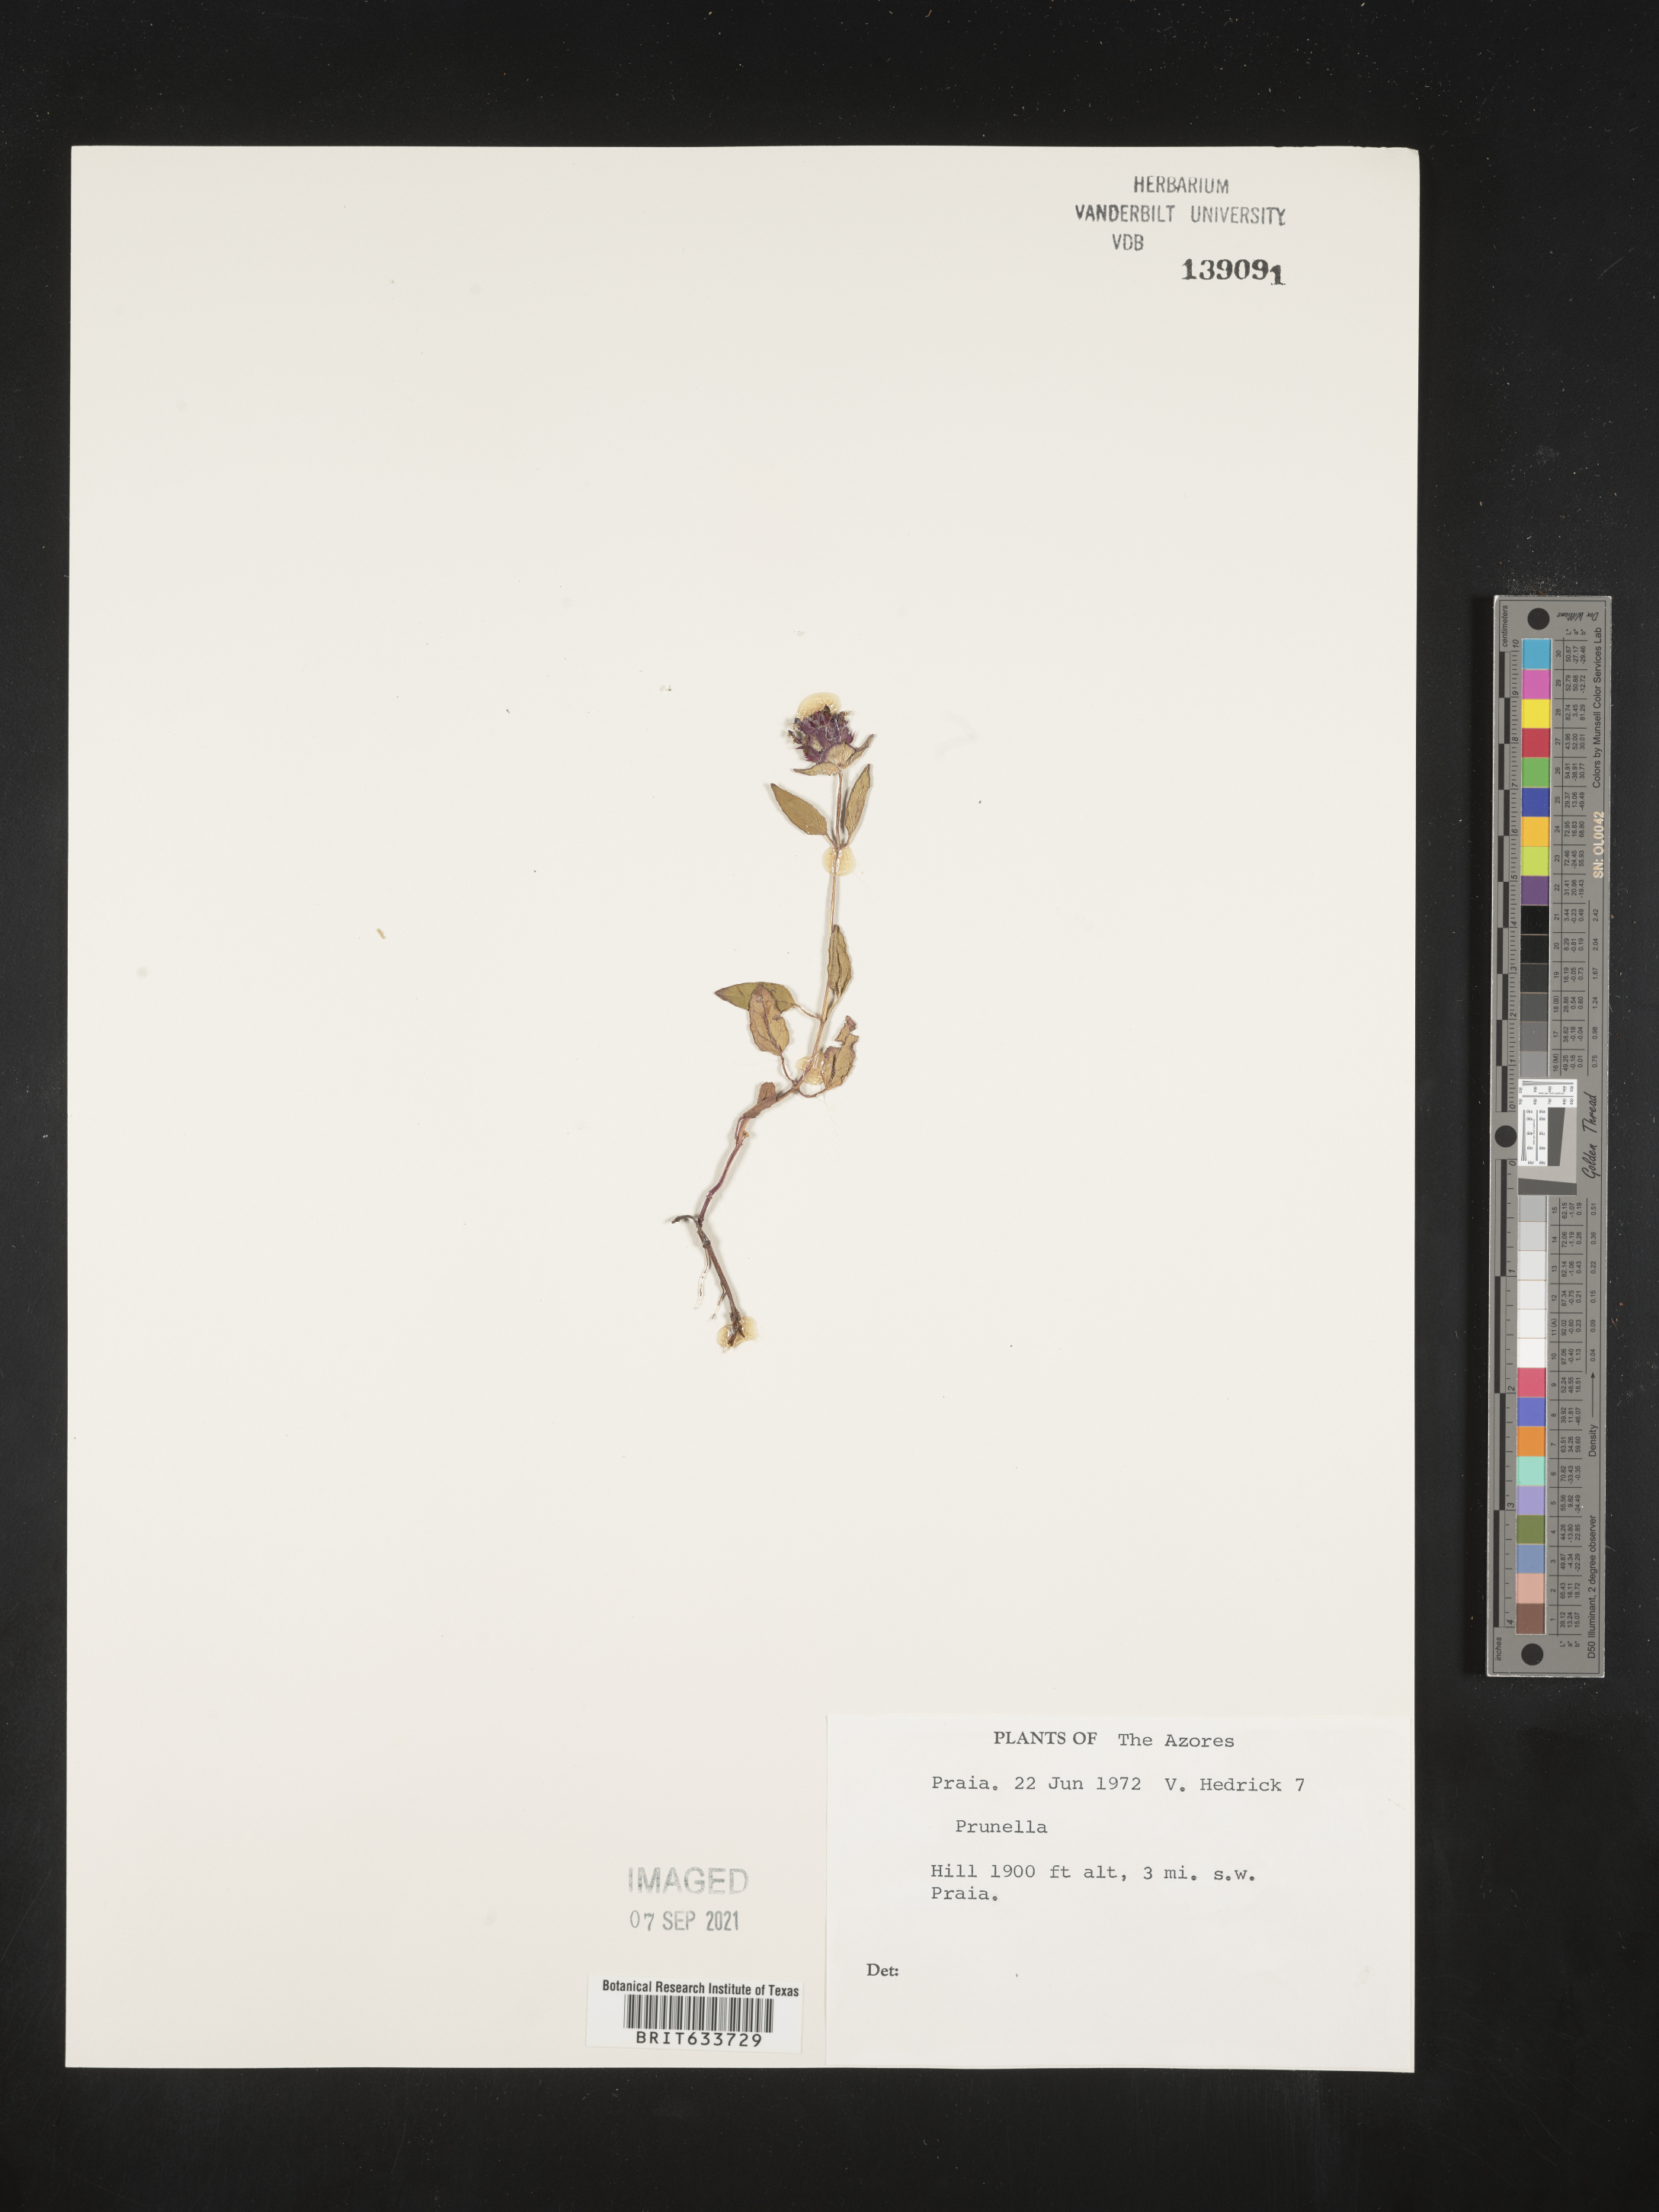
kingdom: Plantae
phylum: Tracheophyta
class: Magnoliopsida
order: Lamiales
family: Lamiaceae
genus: Prunella
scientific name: Prunella
